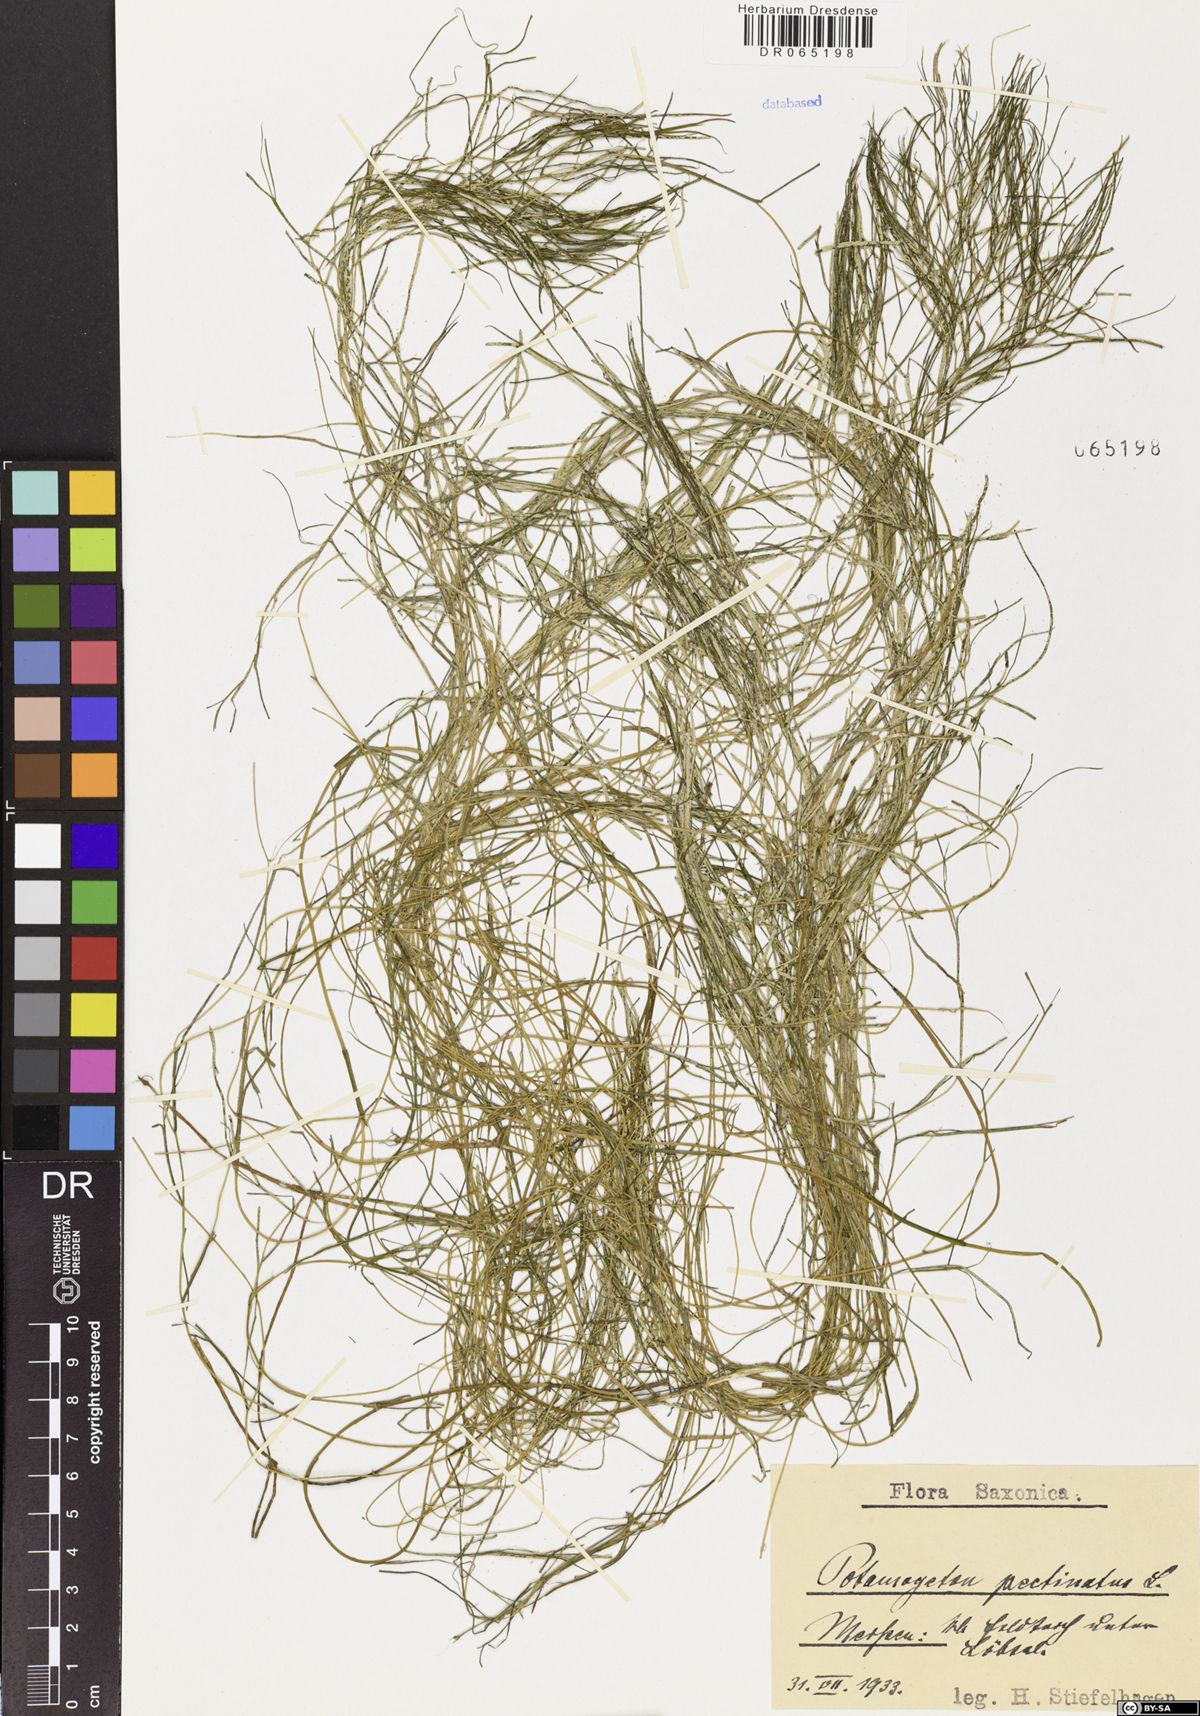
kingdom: Plantae
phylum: Tracheophyta
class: Liliopsida
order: Alismatales
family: Potamogetonaceae
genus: Stuckenia
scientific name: Stuckenia pectinata
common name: Sago pondweed
